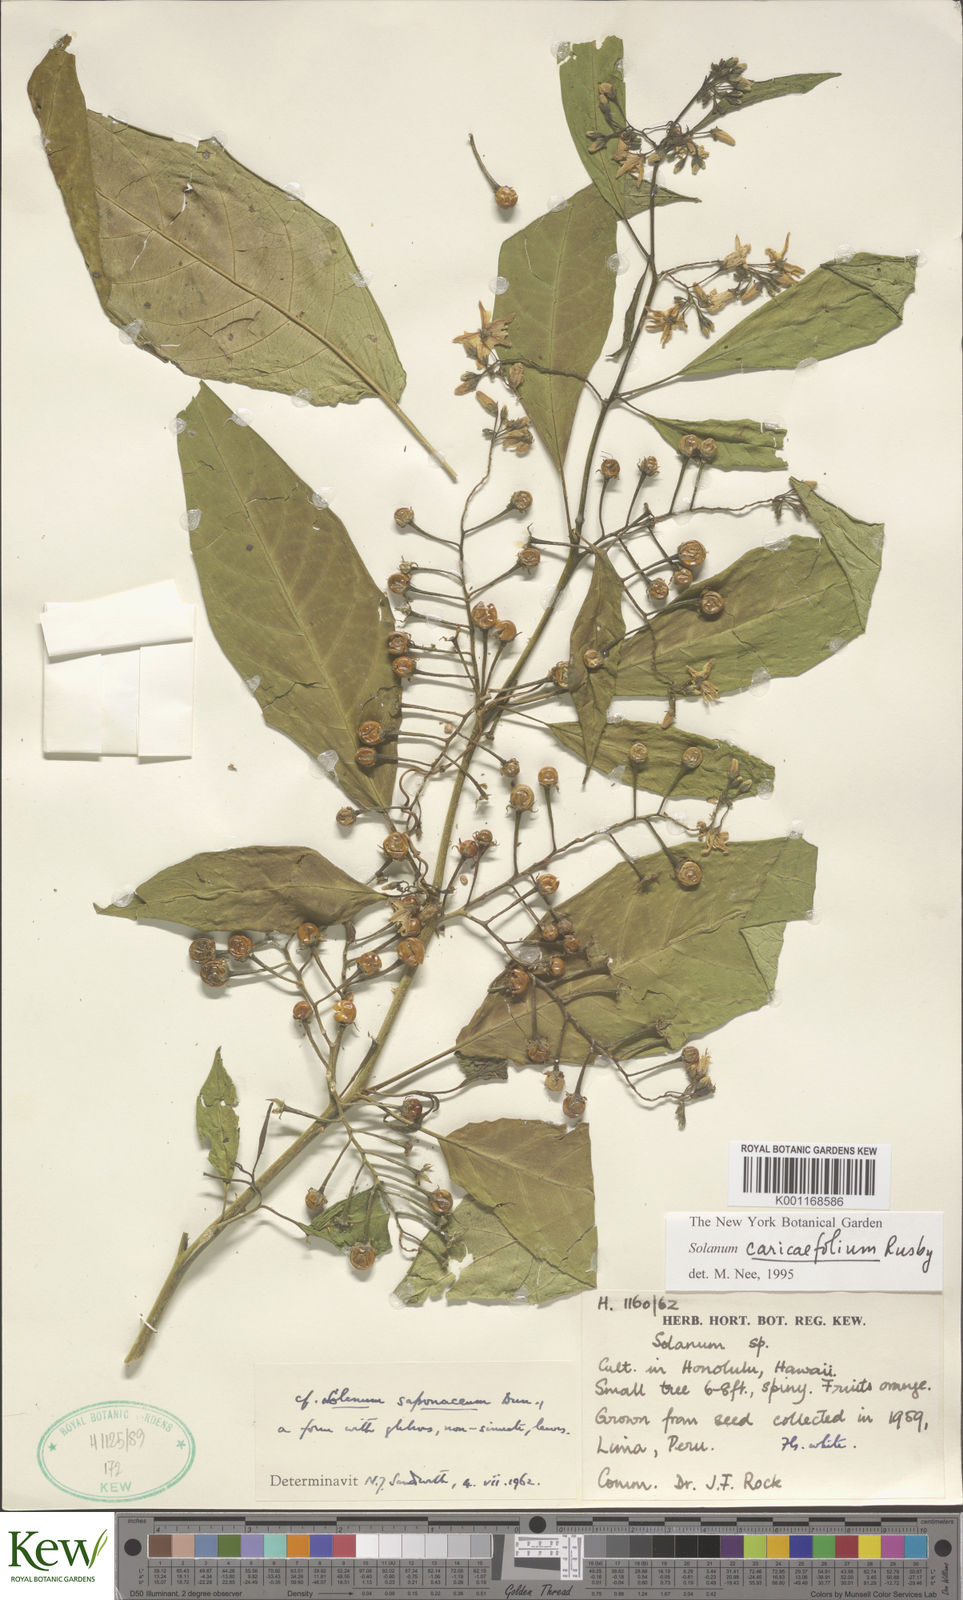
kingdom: Plantae
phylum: Tracheophyta
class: Magnoliopsida
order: Solanales
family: Solanaceae
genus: Solanum
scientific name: Solanum caricaefolium
